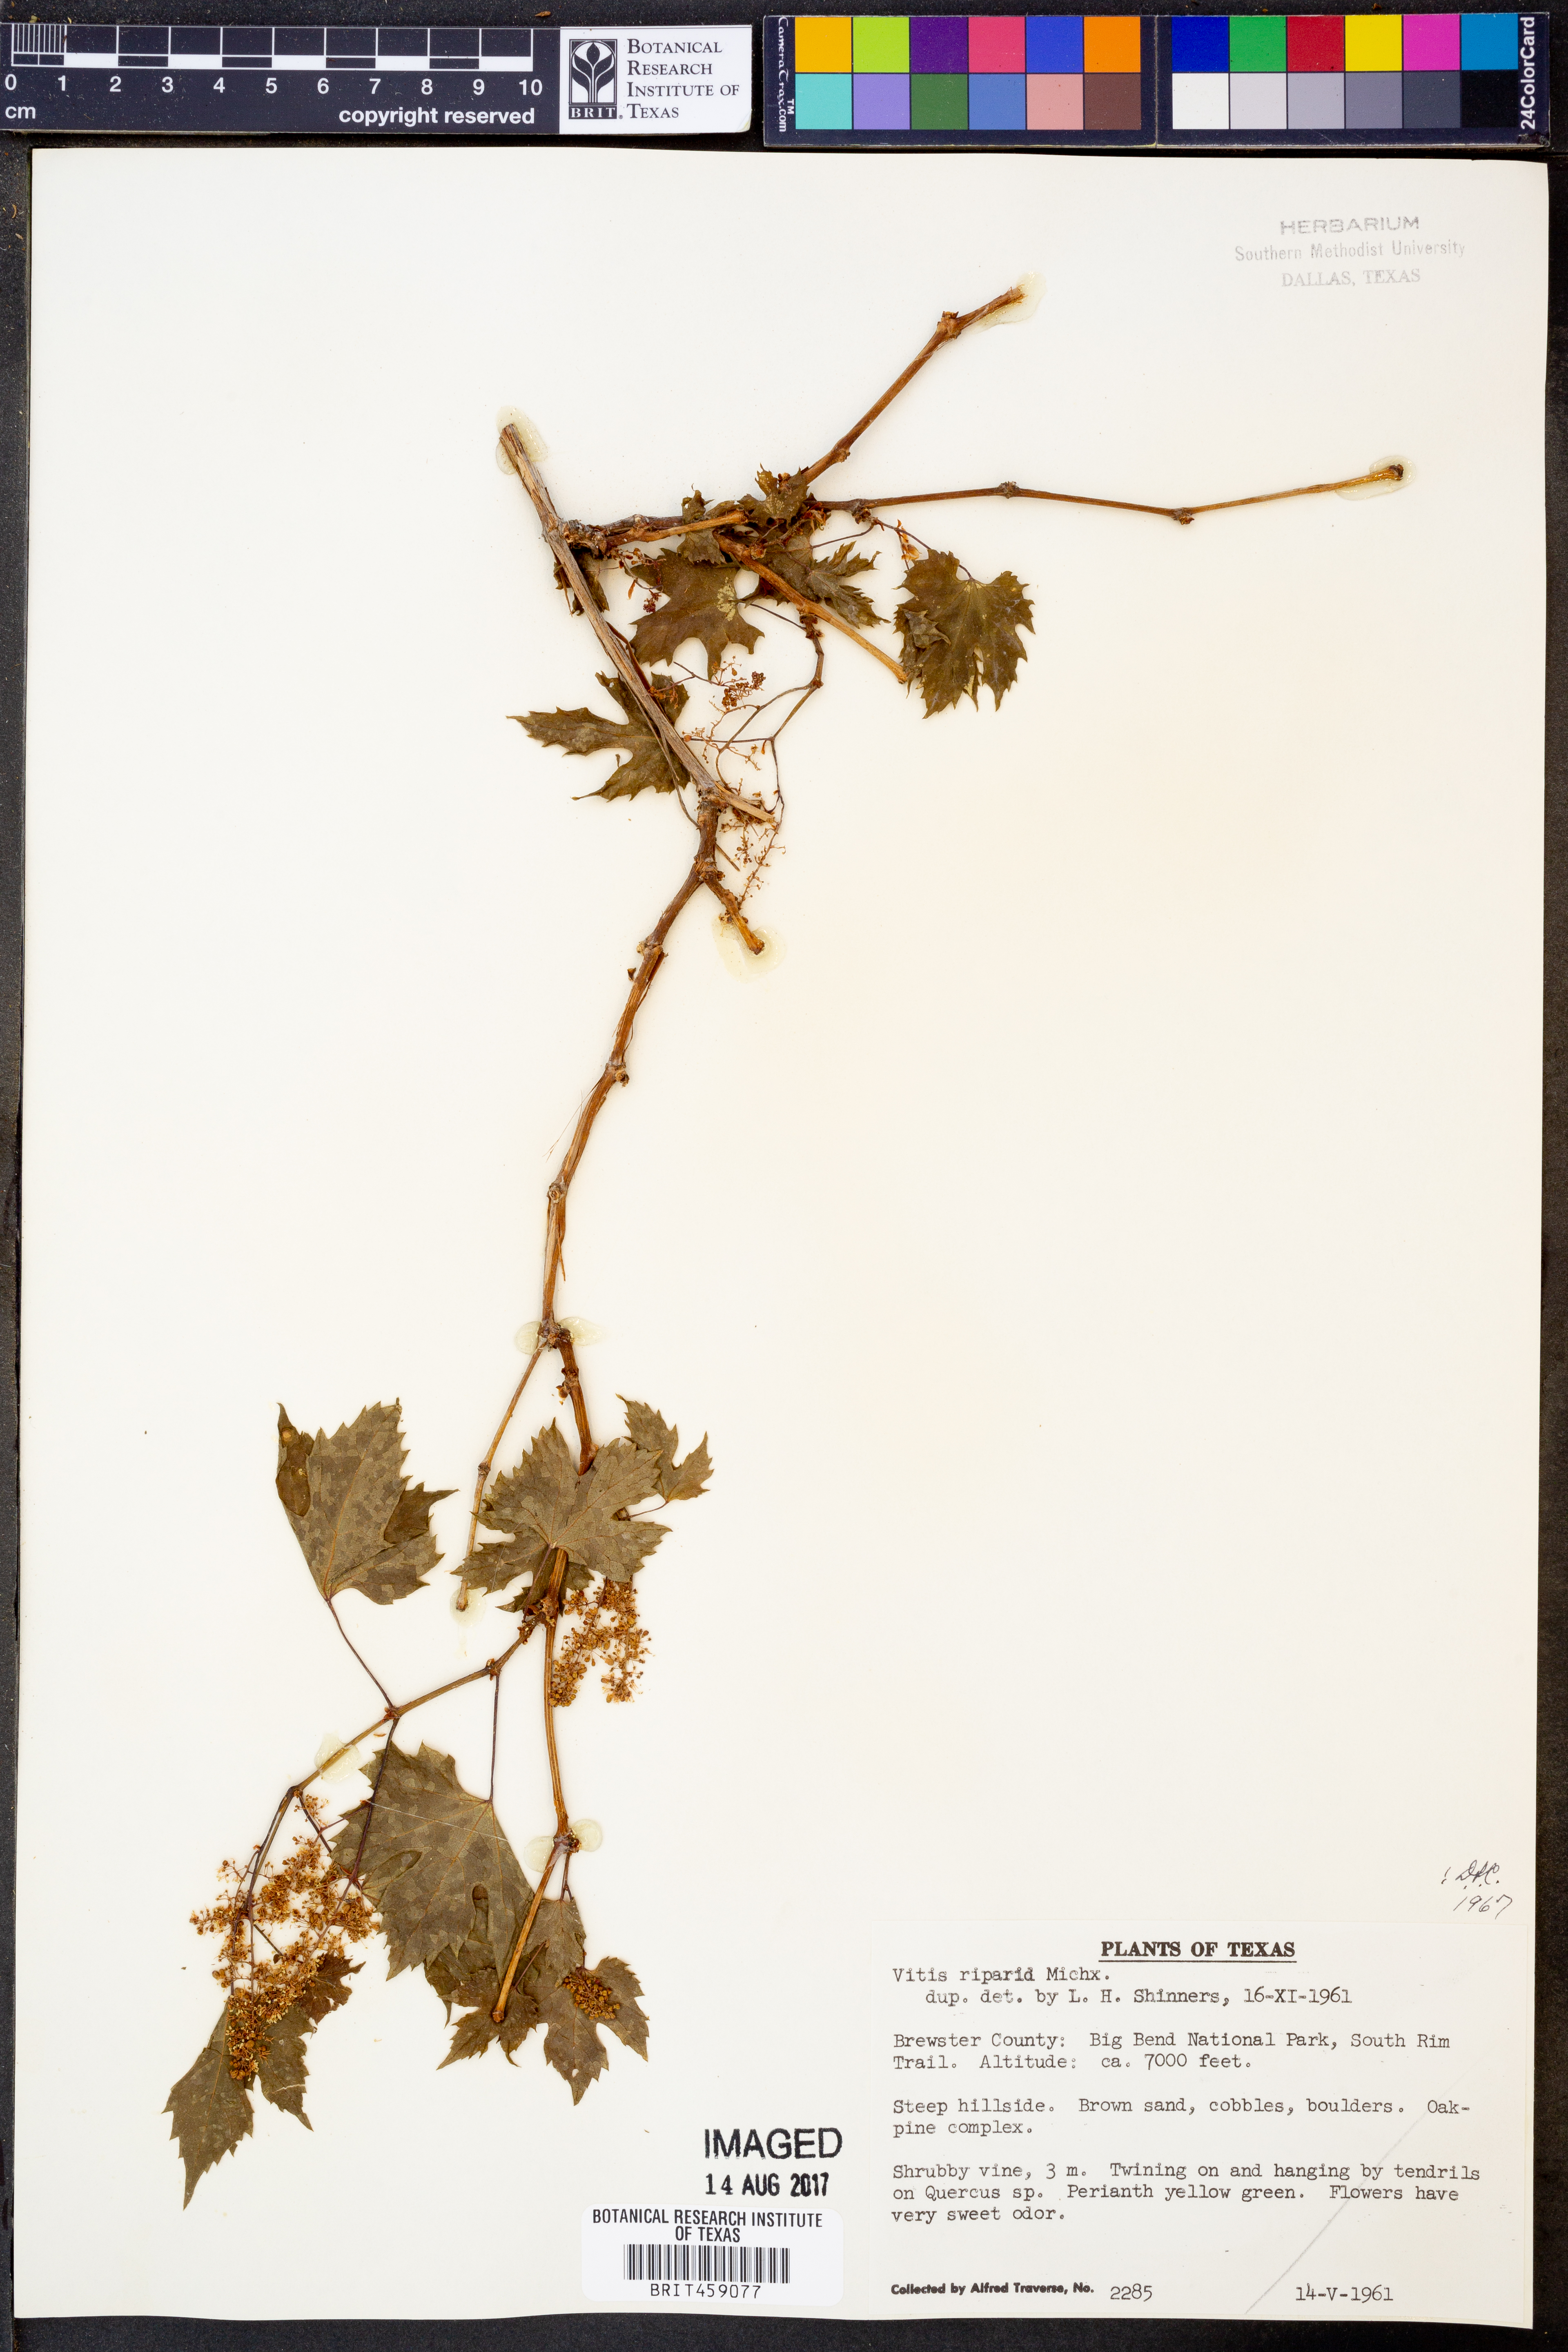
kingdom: Plantae
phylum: Tracheophyta
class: Magnoliopsida
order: Vitales
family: Vitaceae
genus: Vitis
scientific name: Vitis riparia
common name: Frost grape
